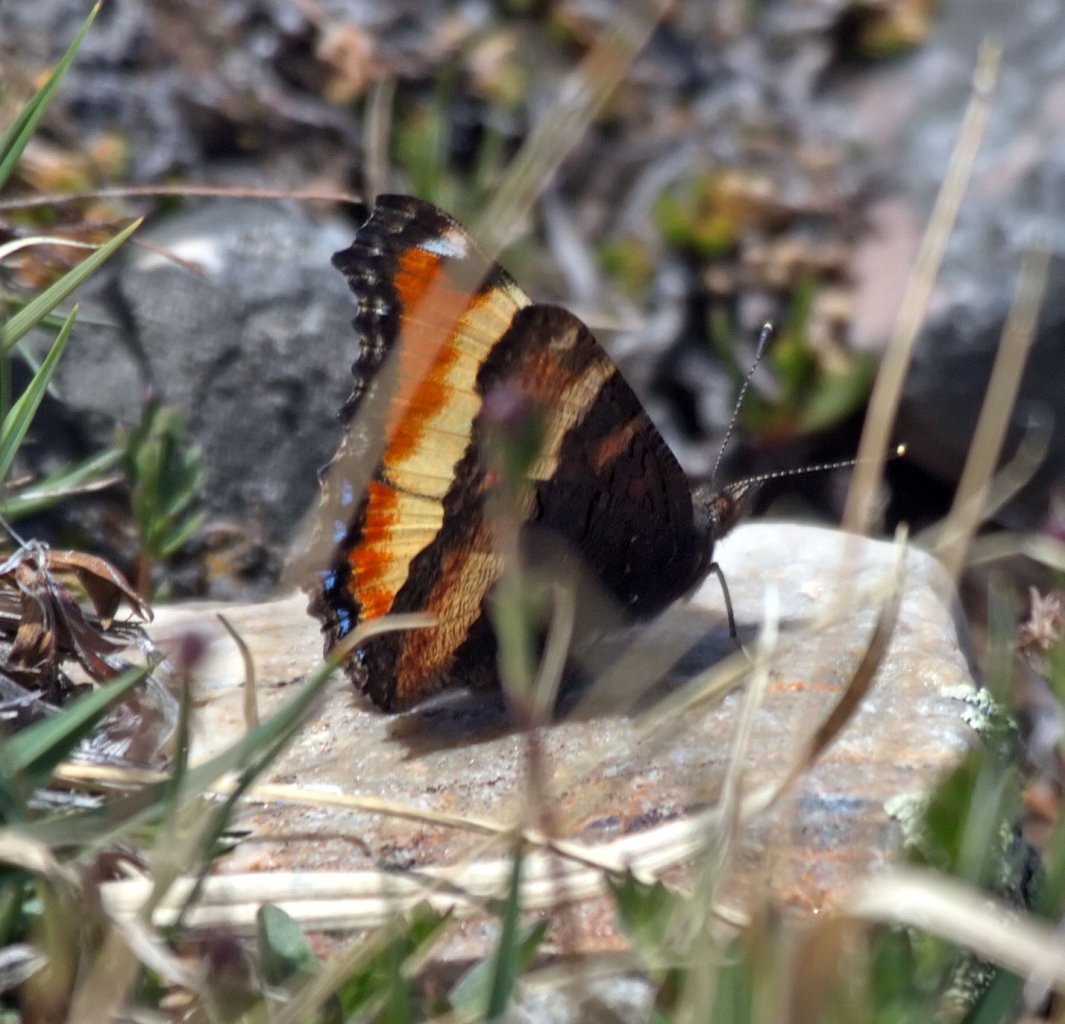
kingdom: Animalia
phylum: Arthropoda
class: Insecta
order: Lepidoptera
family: Nymphalidae
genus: Aglais
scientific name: Aglais milberti
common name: Milbert's Tortoiseshell
